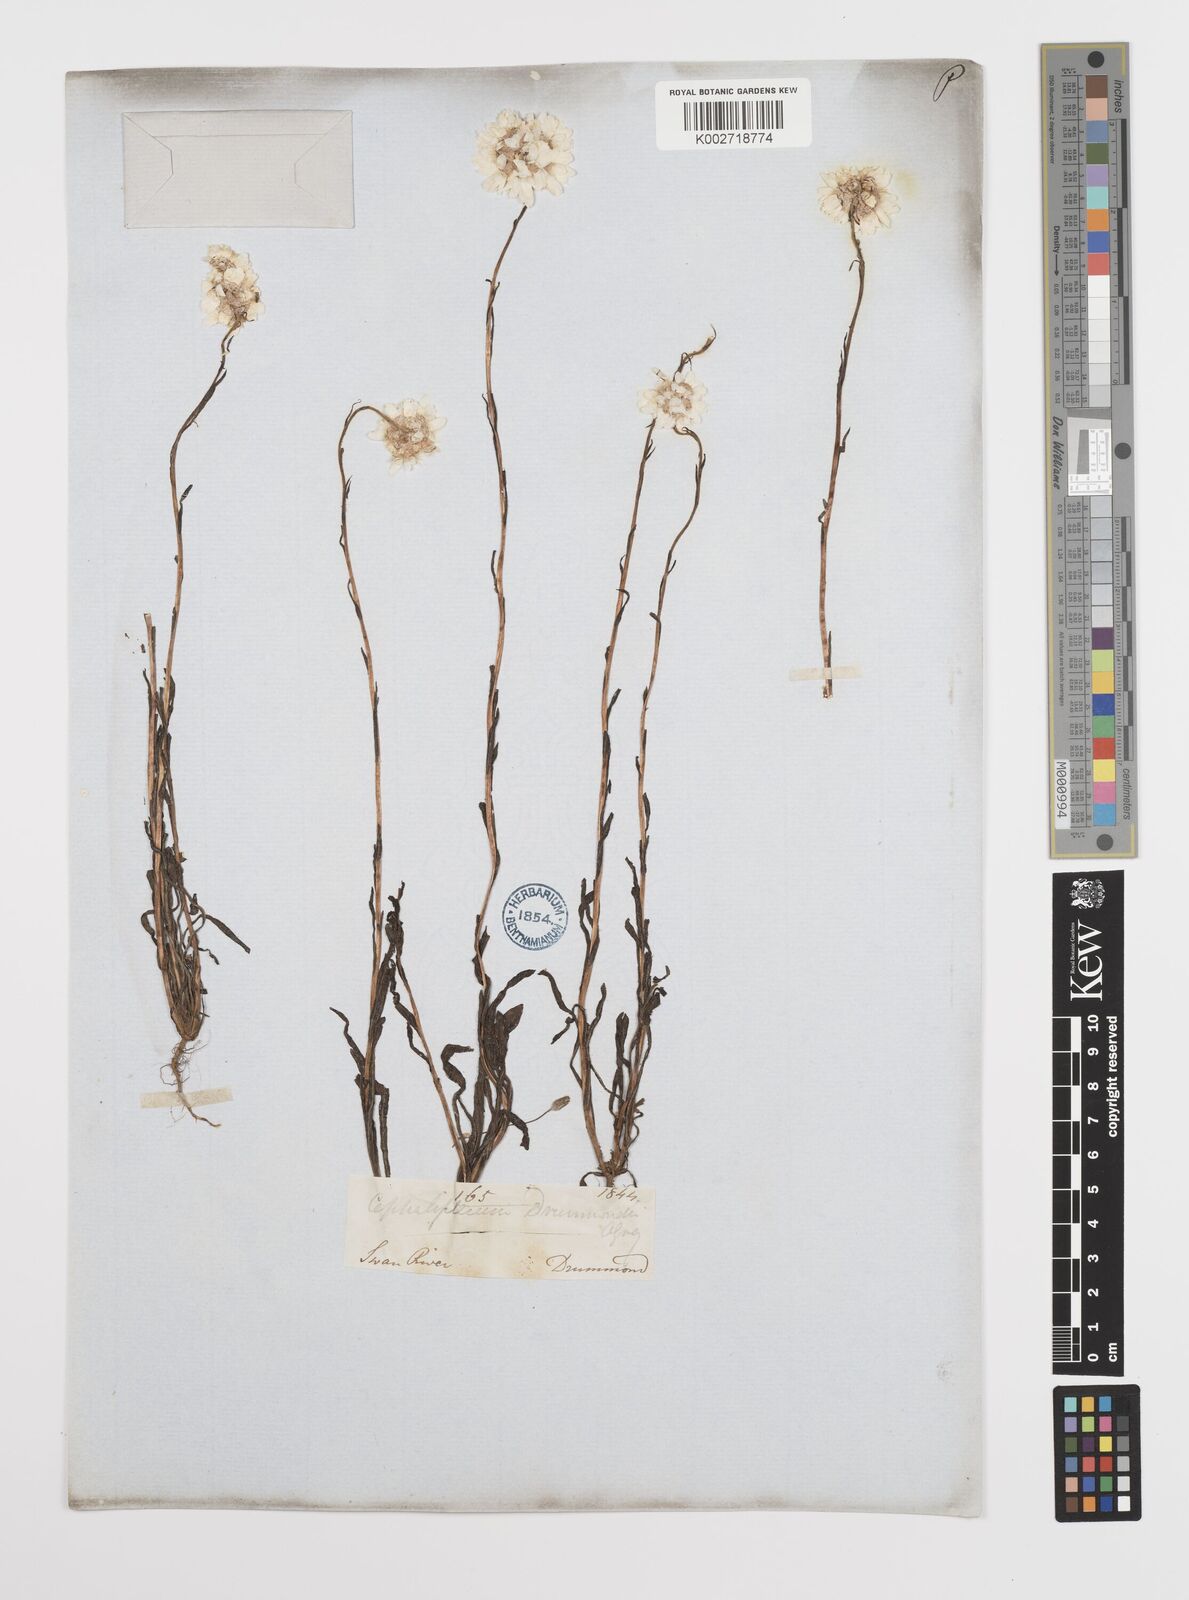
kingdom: Plantae
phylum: Tracheophyta
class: Magnoliopsida
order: Asterales
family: Asteraceae
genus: Cephalipterum
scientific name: Cephalipterum
